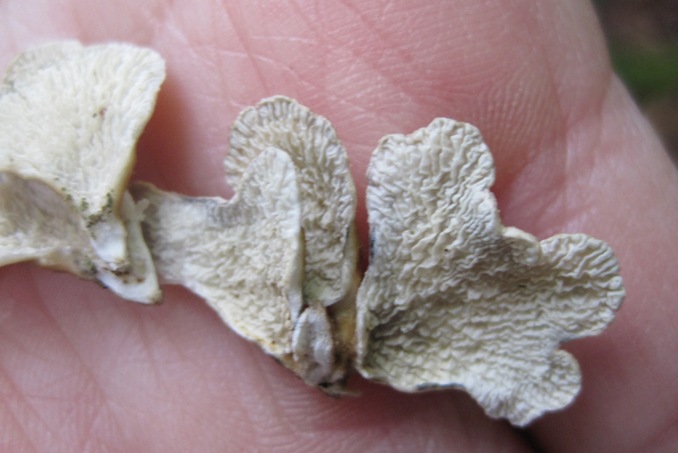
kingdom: Fungi
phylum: Basidiomycota
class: Agaricomycetes
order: Amylocorticiales
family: Amylocorticiaceae
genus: Plicaturopsis
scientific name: Plicaturopsis crispa
